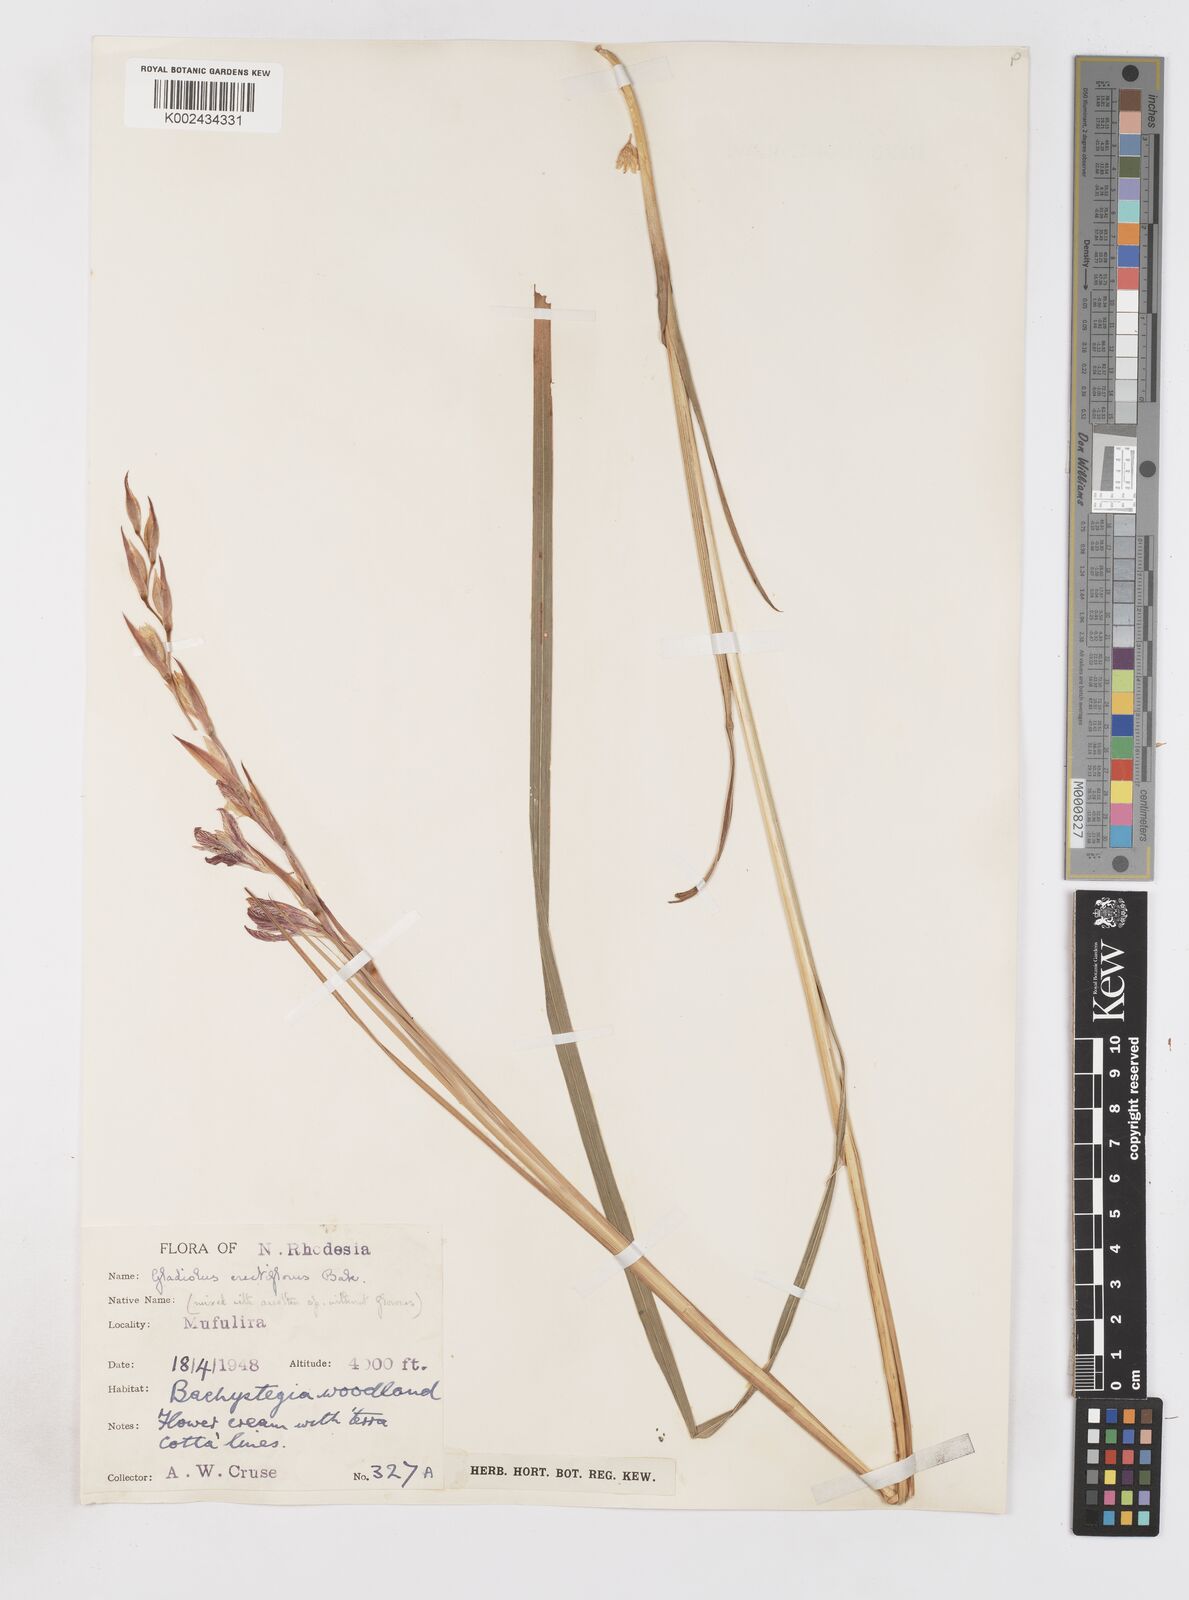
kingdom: Plantae
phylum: Tracheophyta
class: Liliopsida
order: Asparagales
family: Iridaceae
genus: Gladiolus
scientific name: Gladiolus erectiflorus
